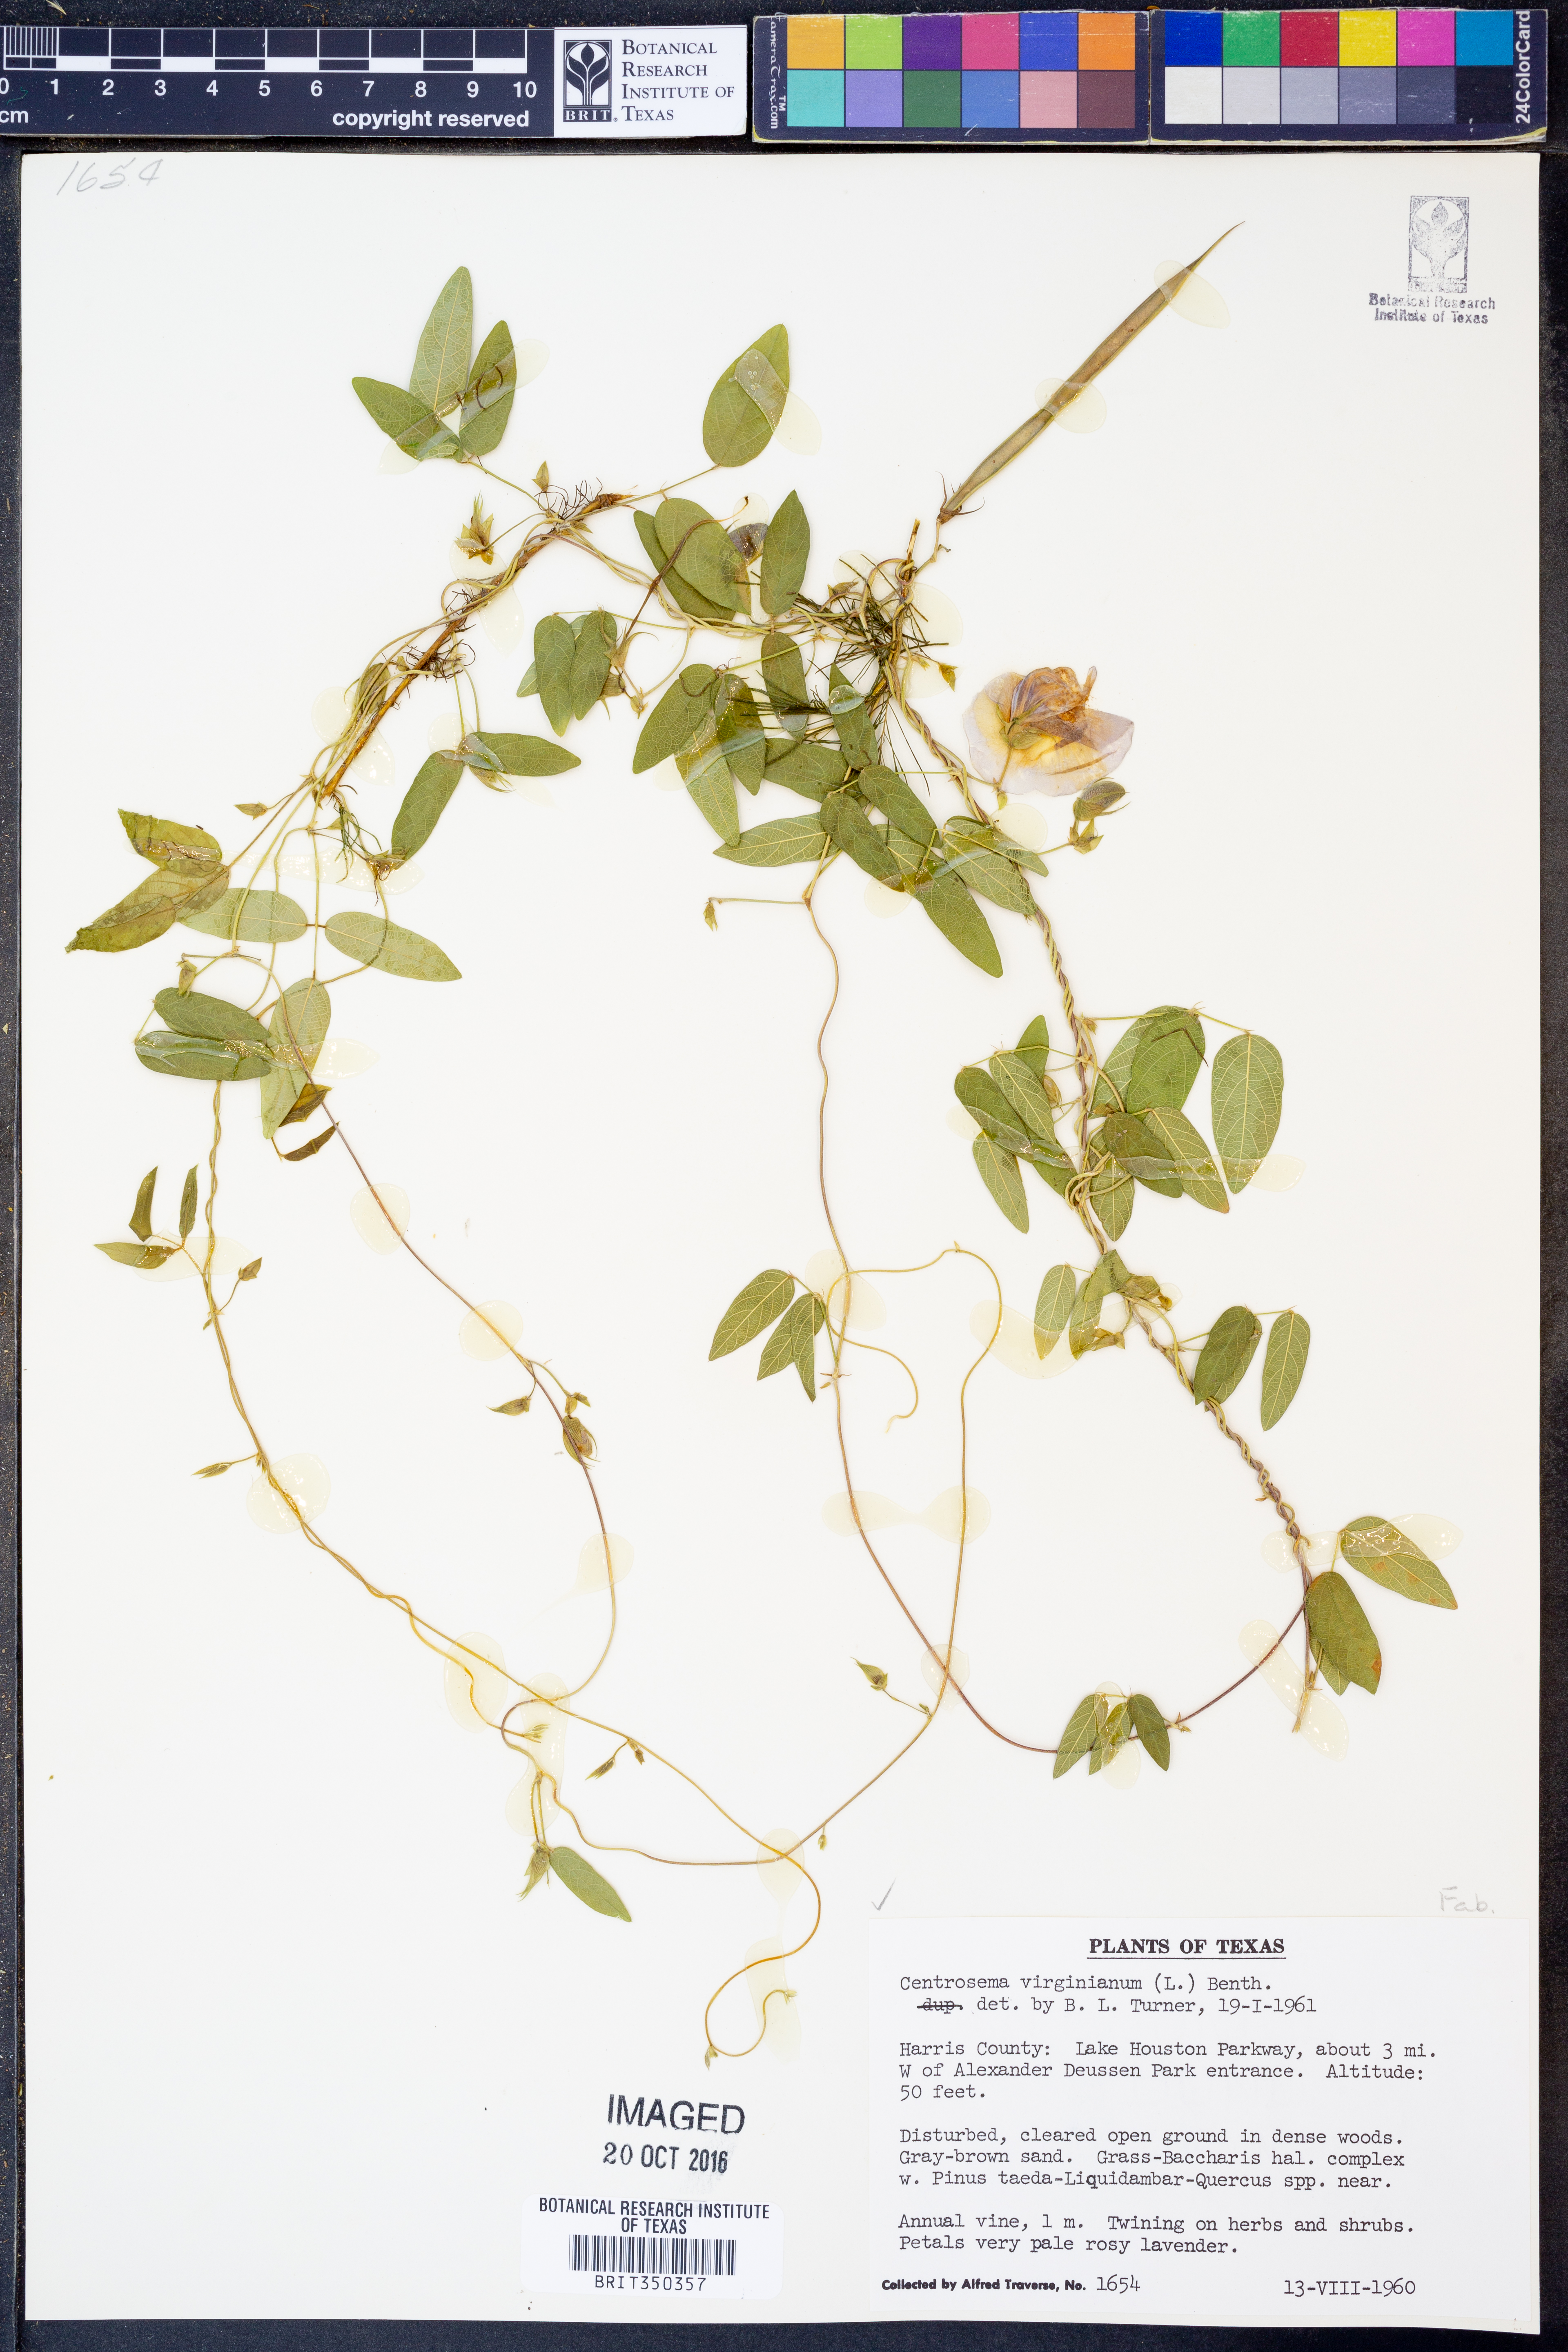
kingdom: Plantae
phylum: Tracheophyta
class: Magnoliopsida
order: Fabales
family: Fabaceae
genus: Centrosema
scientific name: Centrosema virginianum
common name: Butterfly-pea
